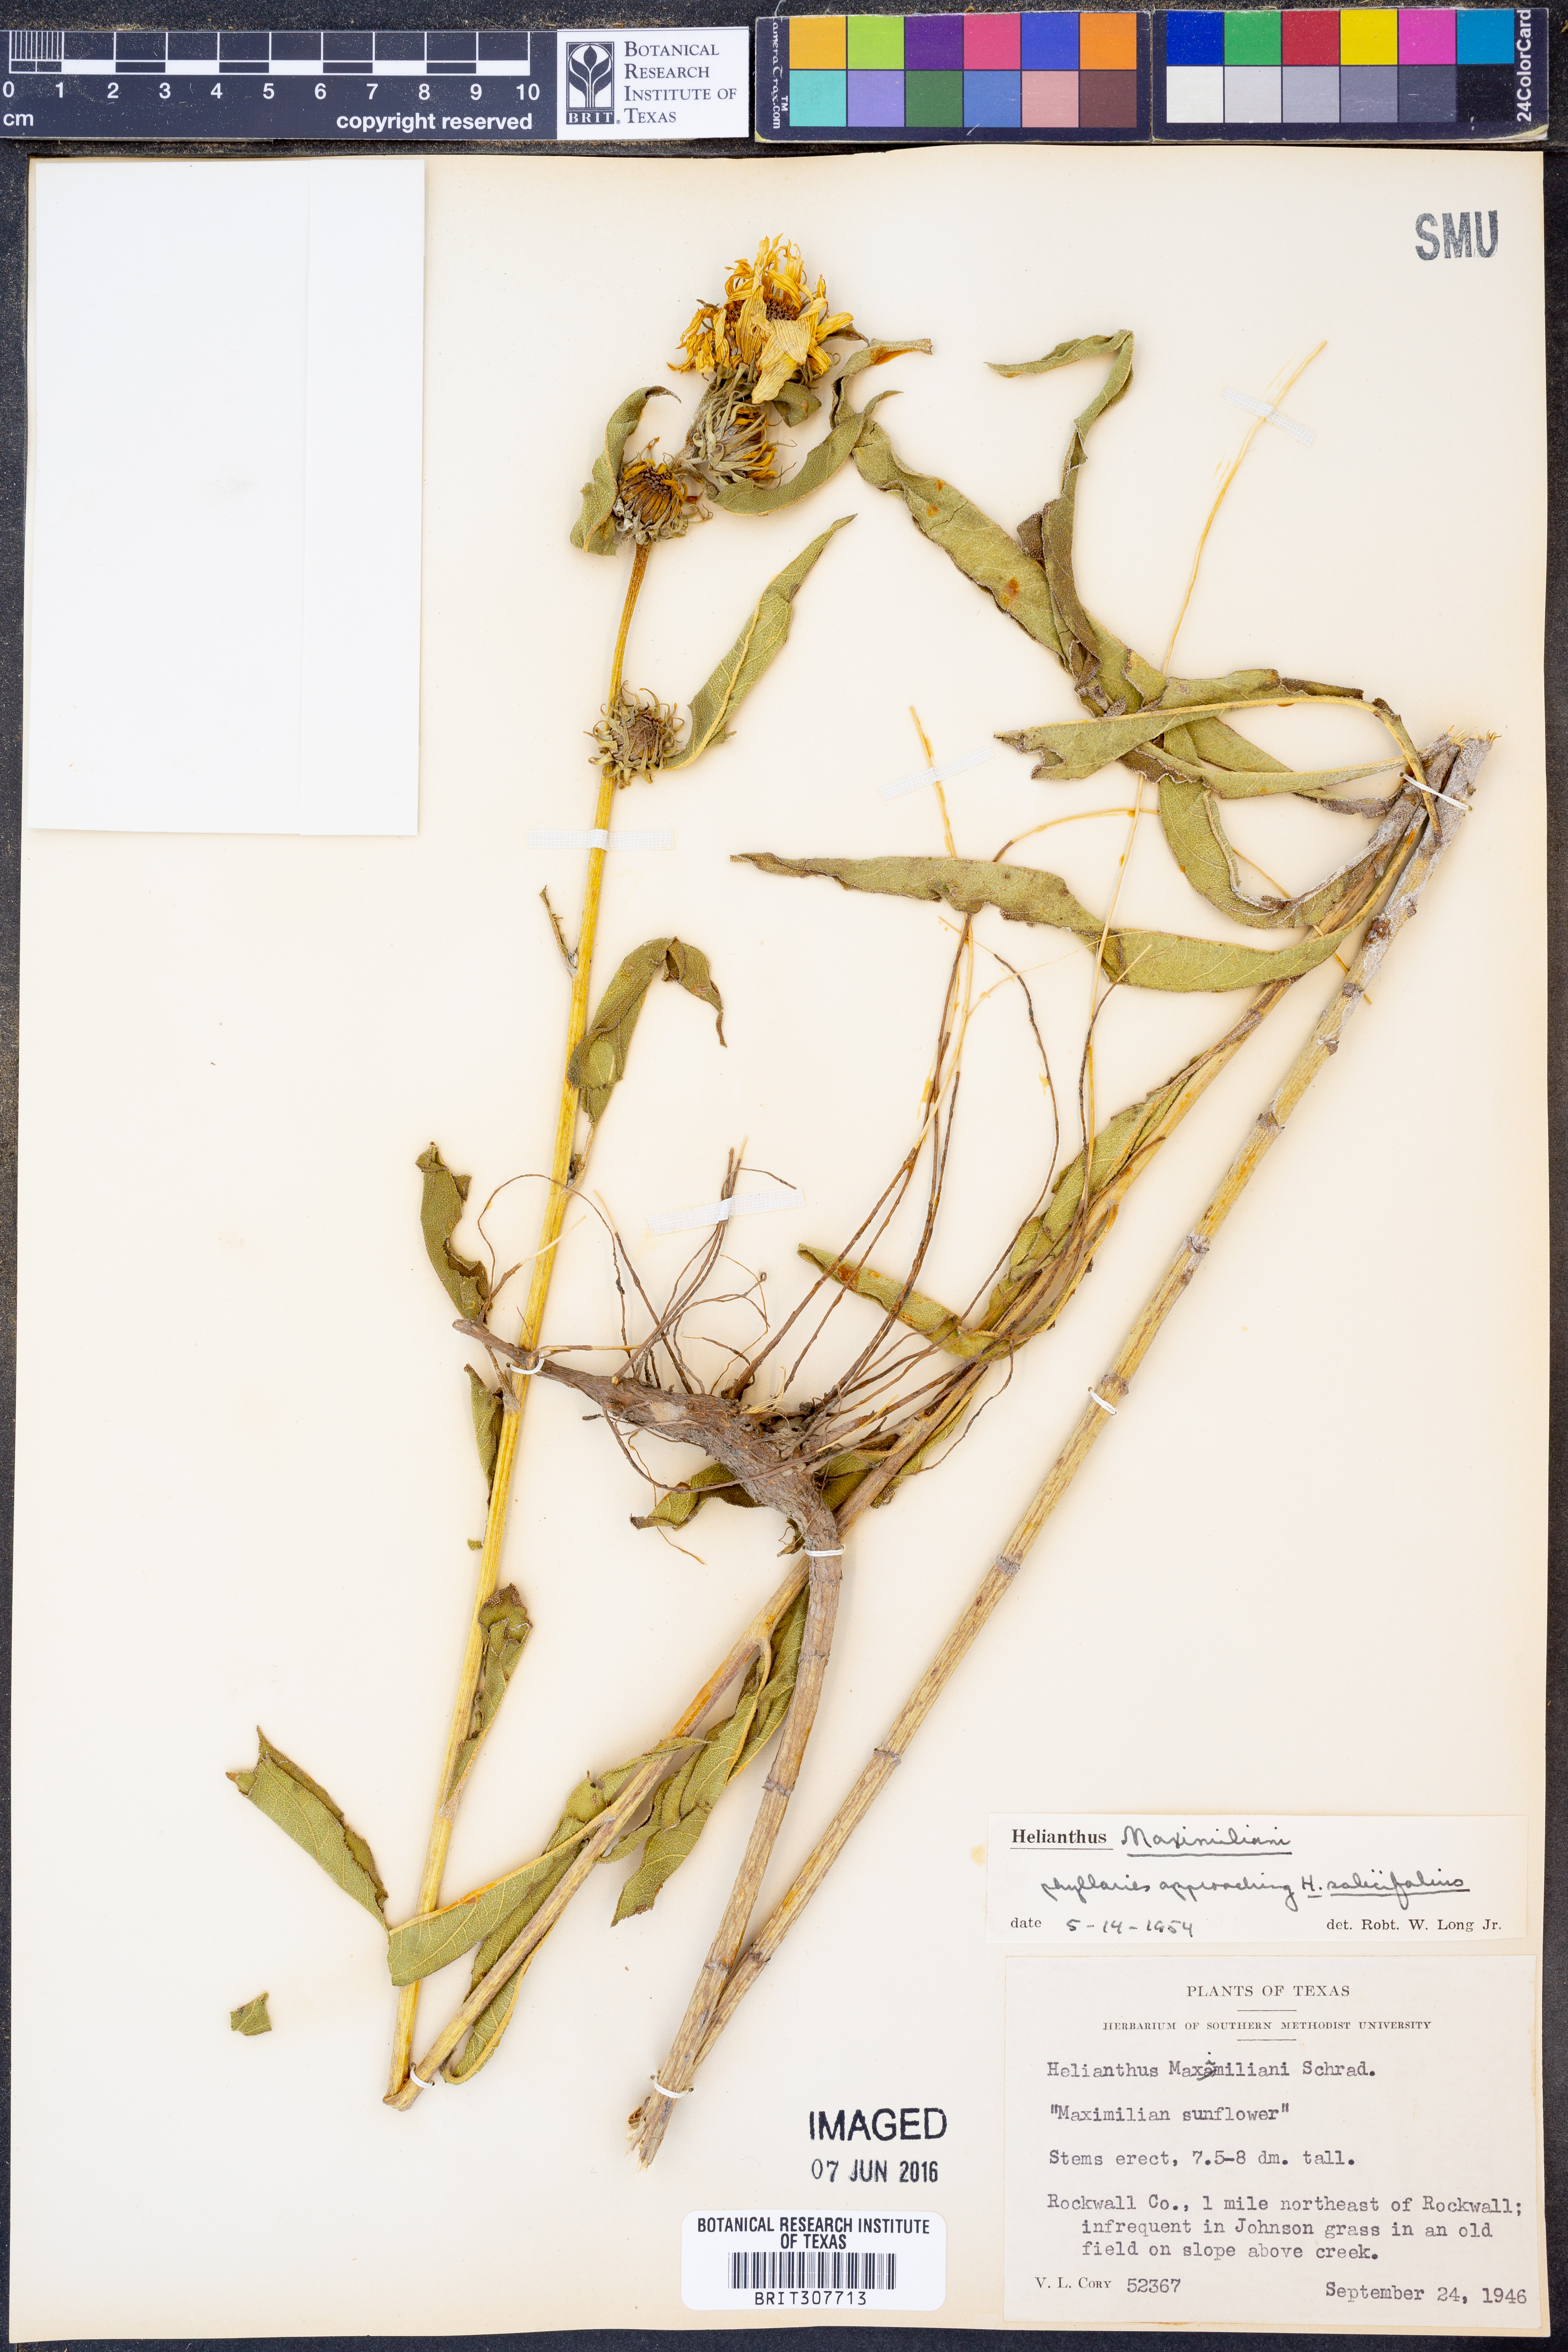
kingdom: Plantae
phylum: Tracheophyta
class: Magnoliopsida
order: Asterales
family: Asteraceae
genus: Helianthus
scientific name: Helianthus maximiliani
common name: Maximilian's sunflower
